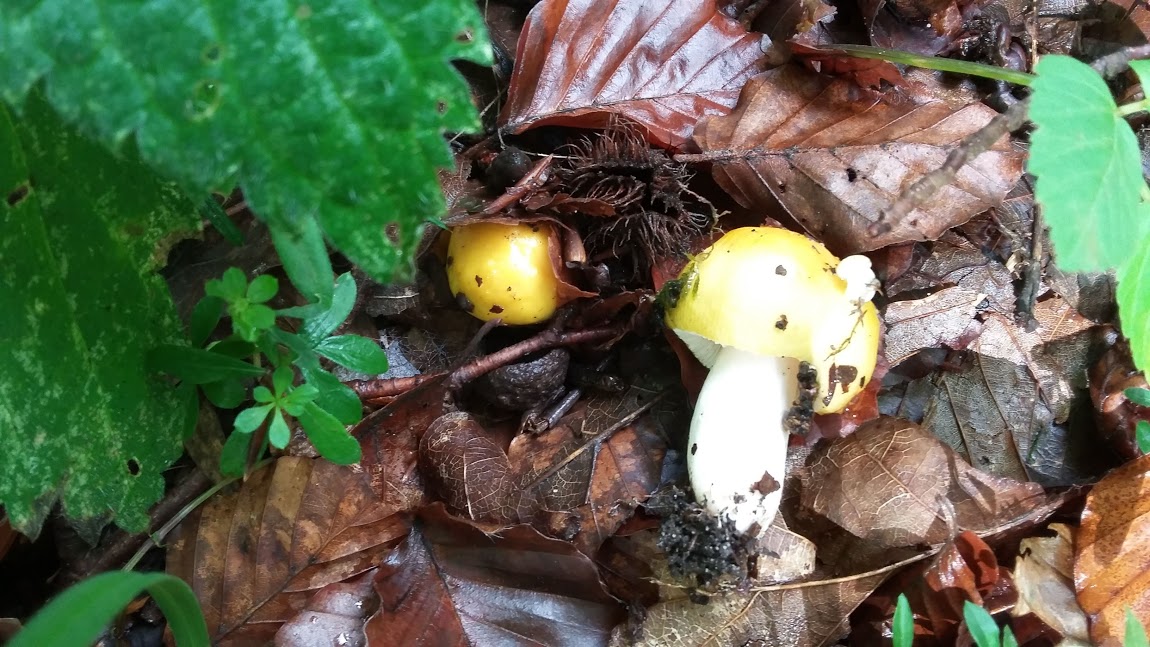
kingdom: Fungi
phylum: Basidiomycota
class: Agaricomycetes
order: Russulales
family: Russulaceae
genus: Russula
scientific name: Russula
